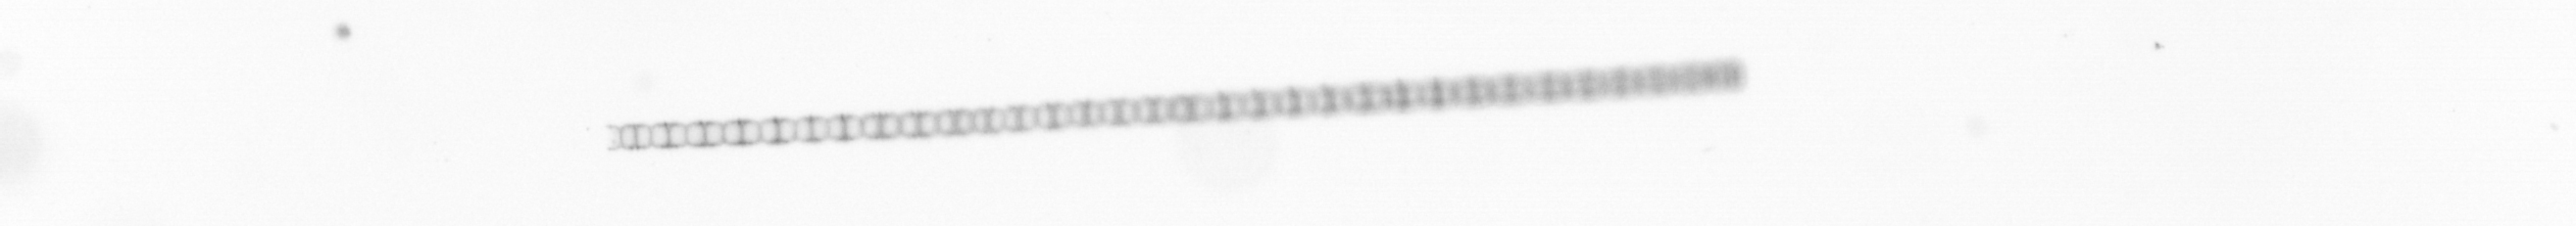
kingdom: Chromista
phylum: Ochrophyta
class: Bacillariophyceae
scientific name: Bacillariophyceae
